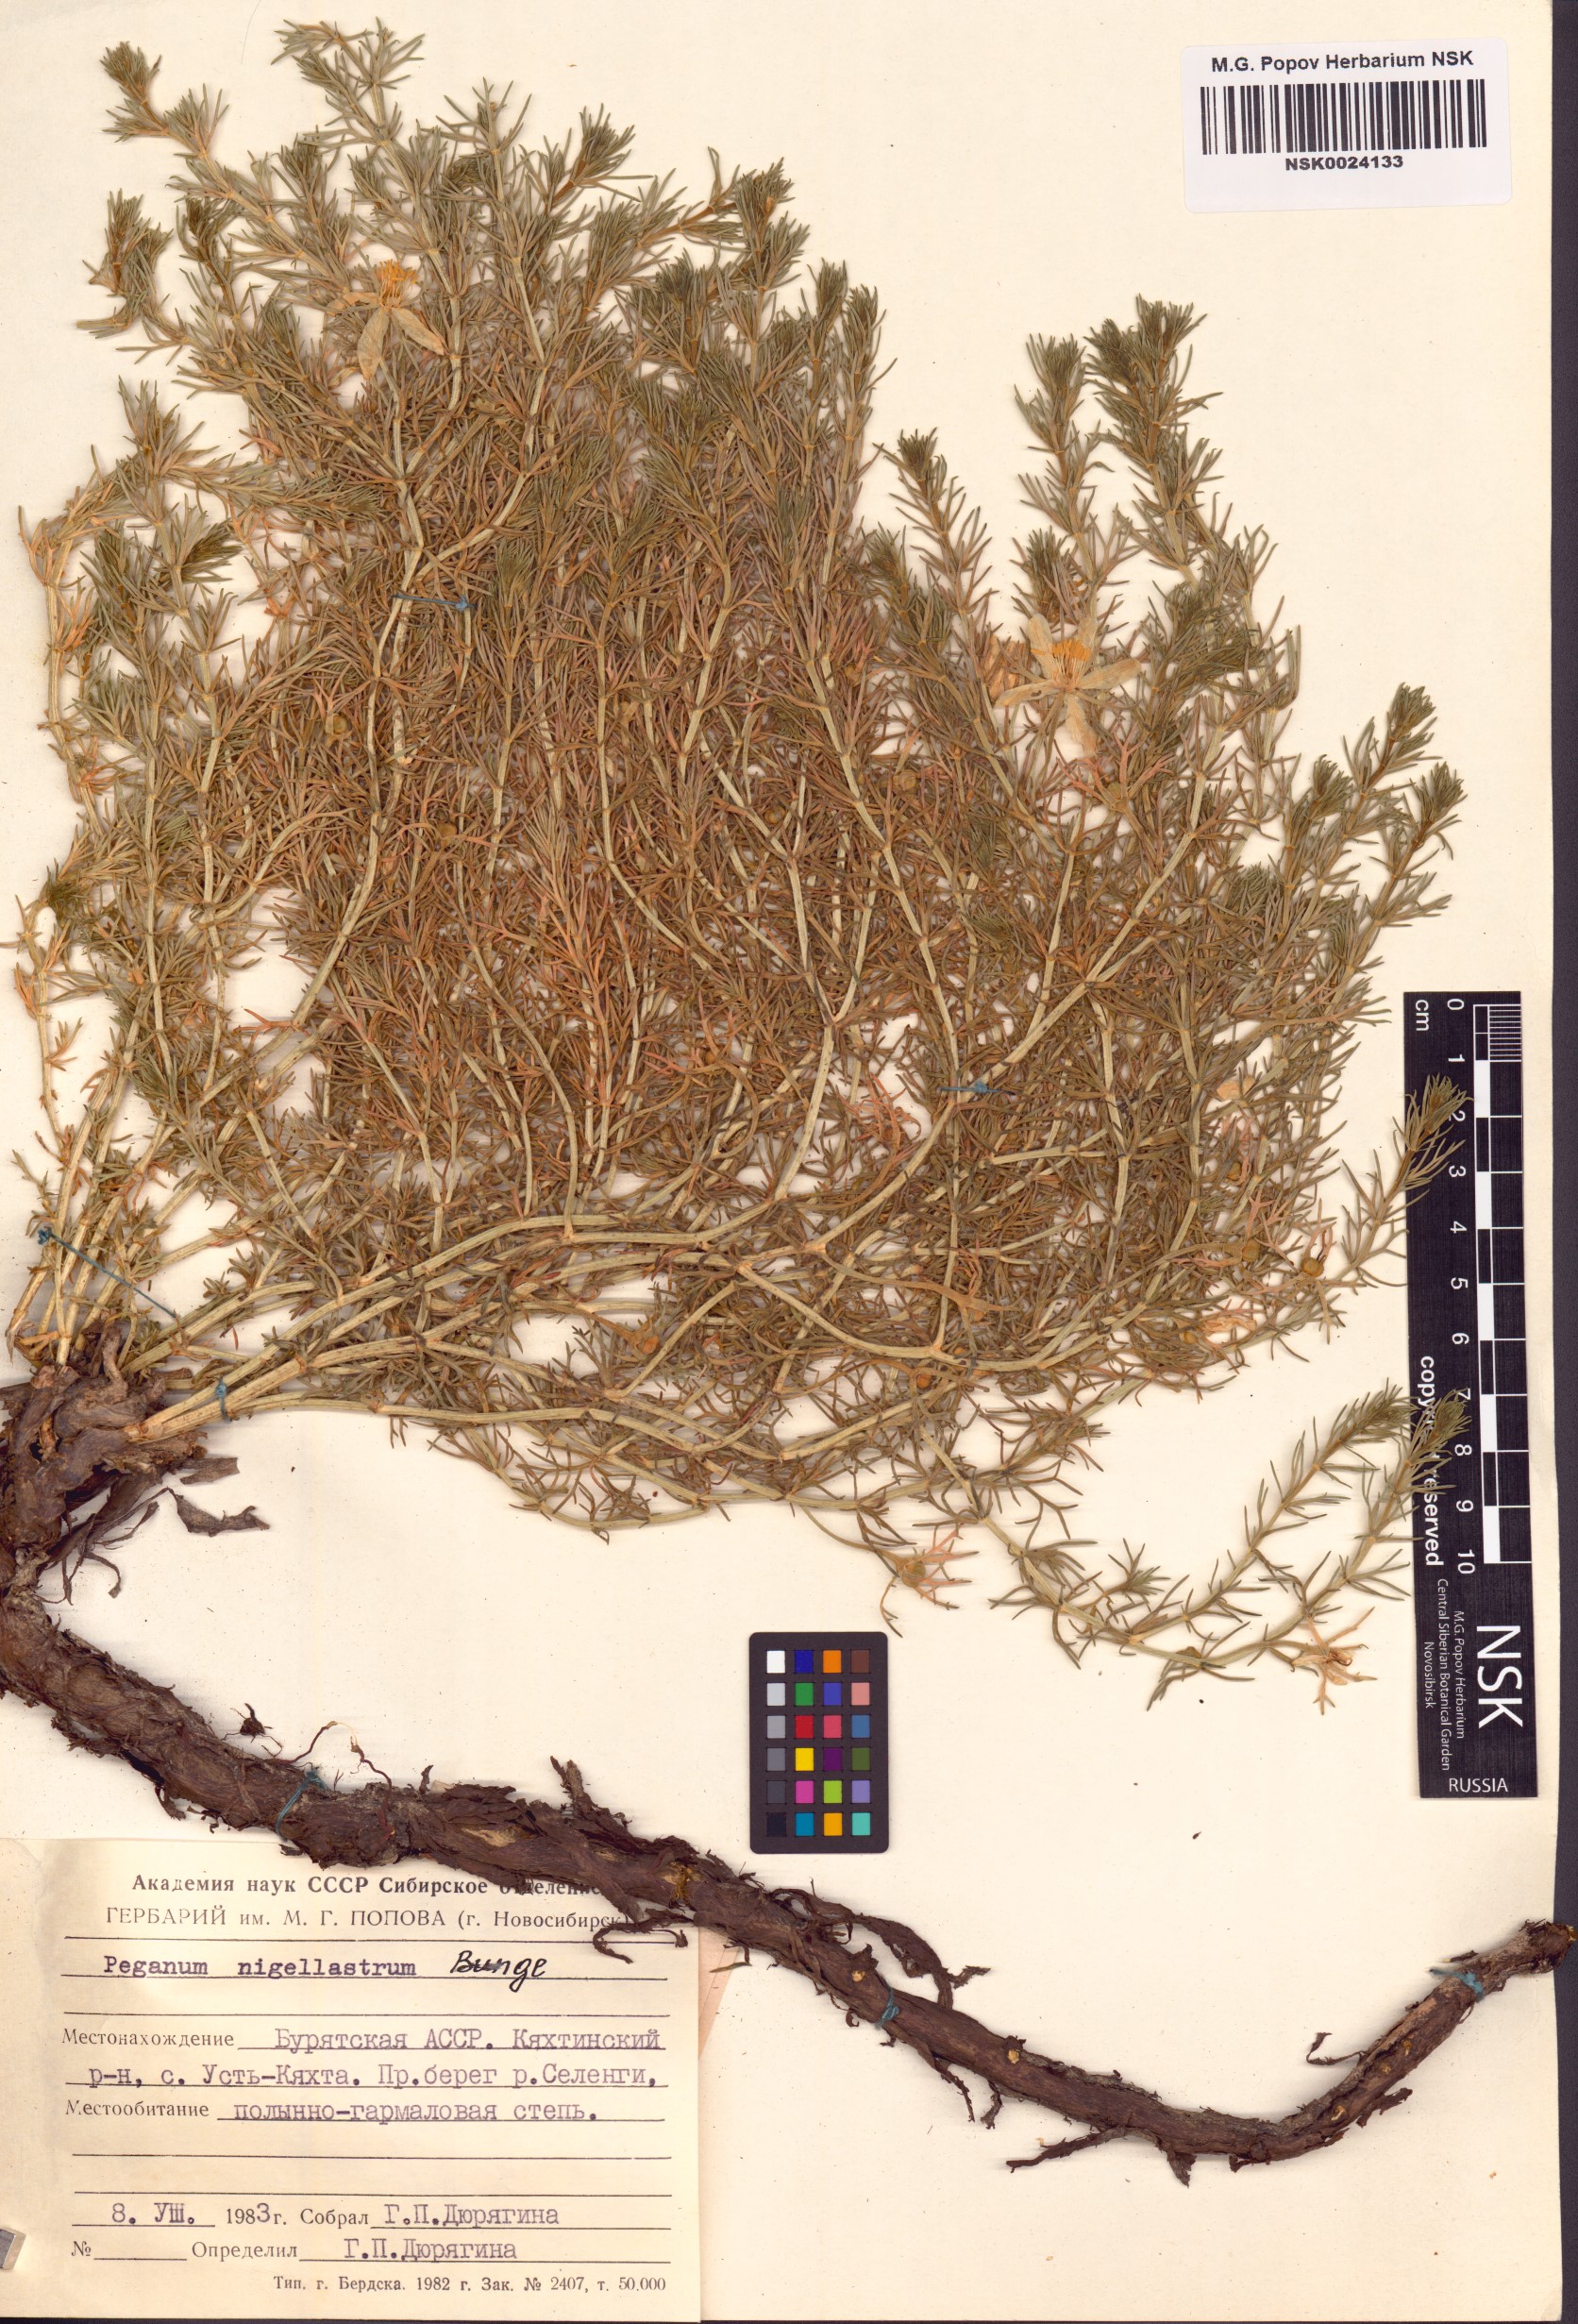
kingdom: Plantae
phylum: Tracheophyta
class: Magnoliopsida
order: Sapindales
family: Tetradiclidaceae
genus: Peganum
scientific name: Peganum nigellastrum
